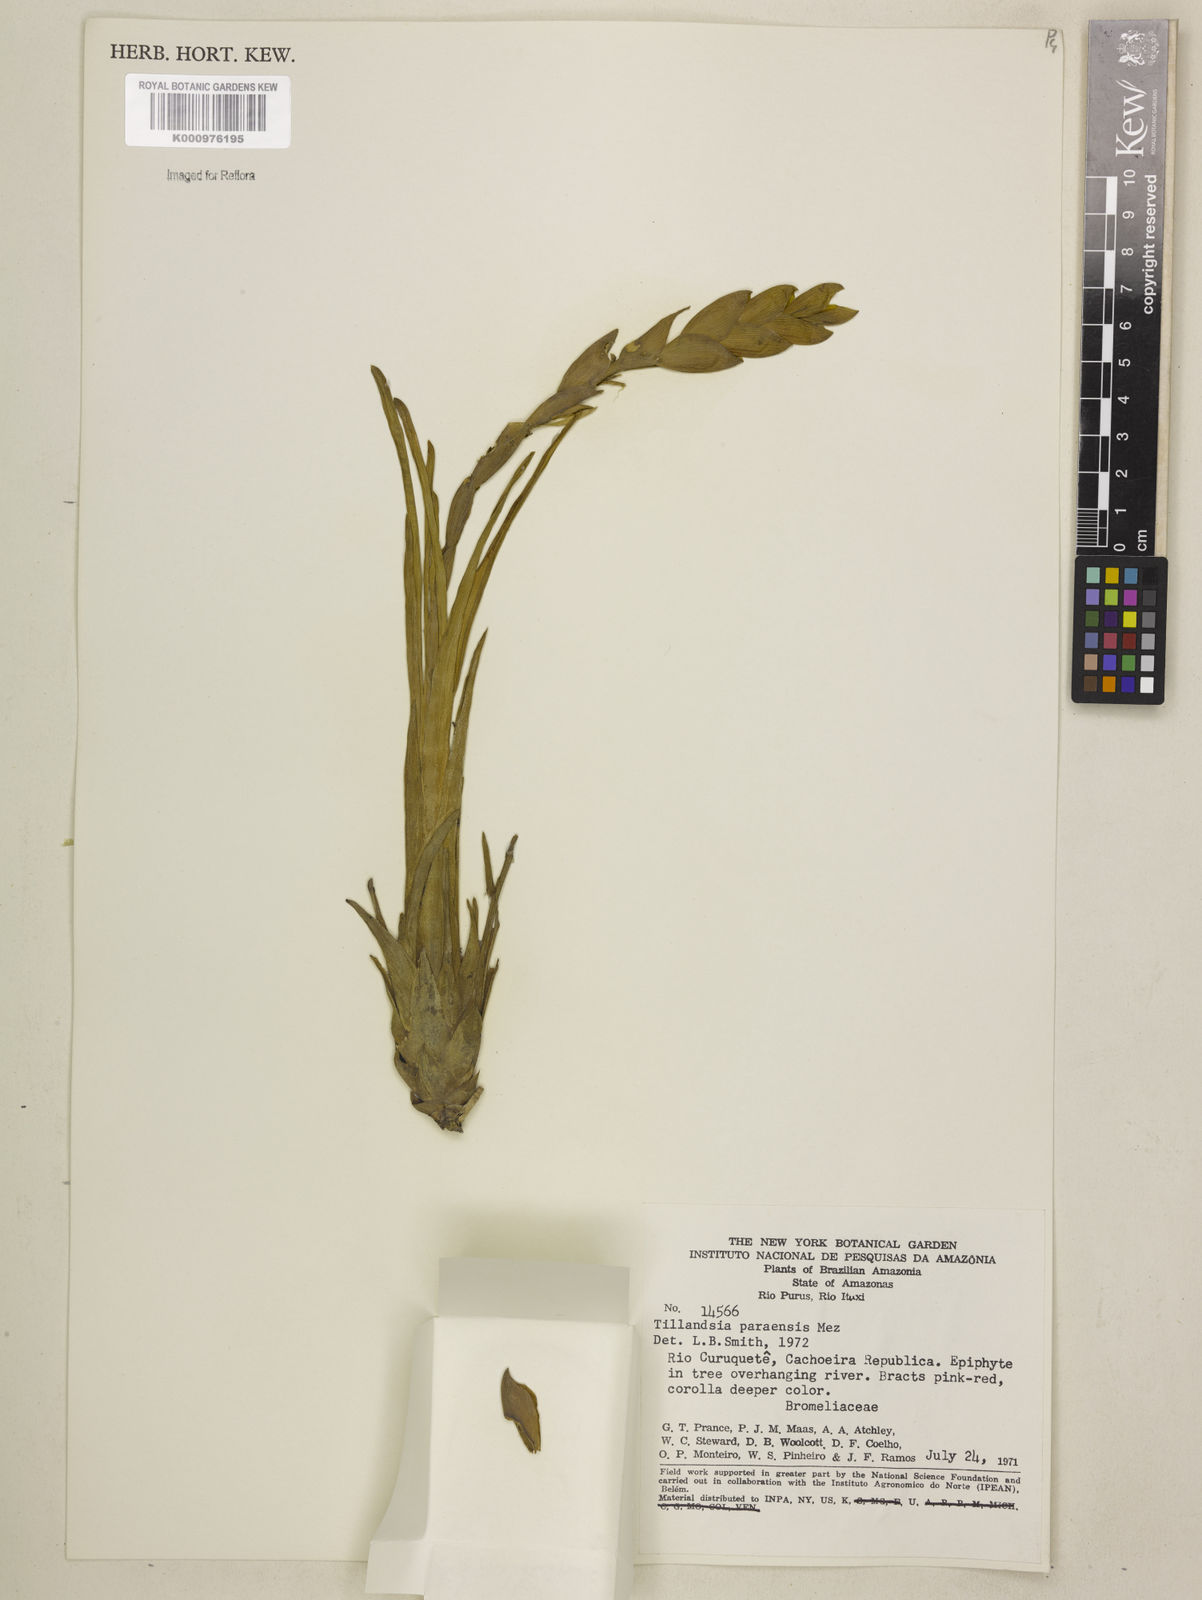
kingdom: Plantae
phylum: Tracheophyta
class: Liliopsida
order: Poales
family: Bromeliaceae
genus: Tillandsia
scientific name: Tillandsia paraensis
